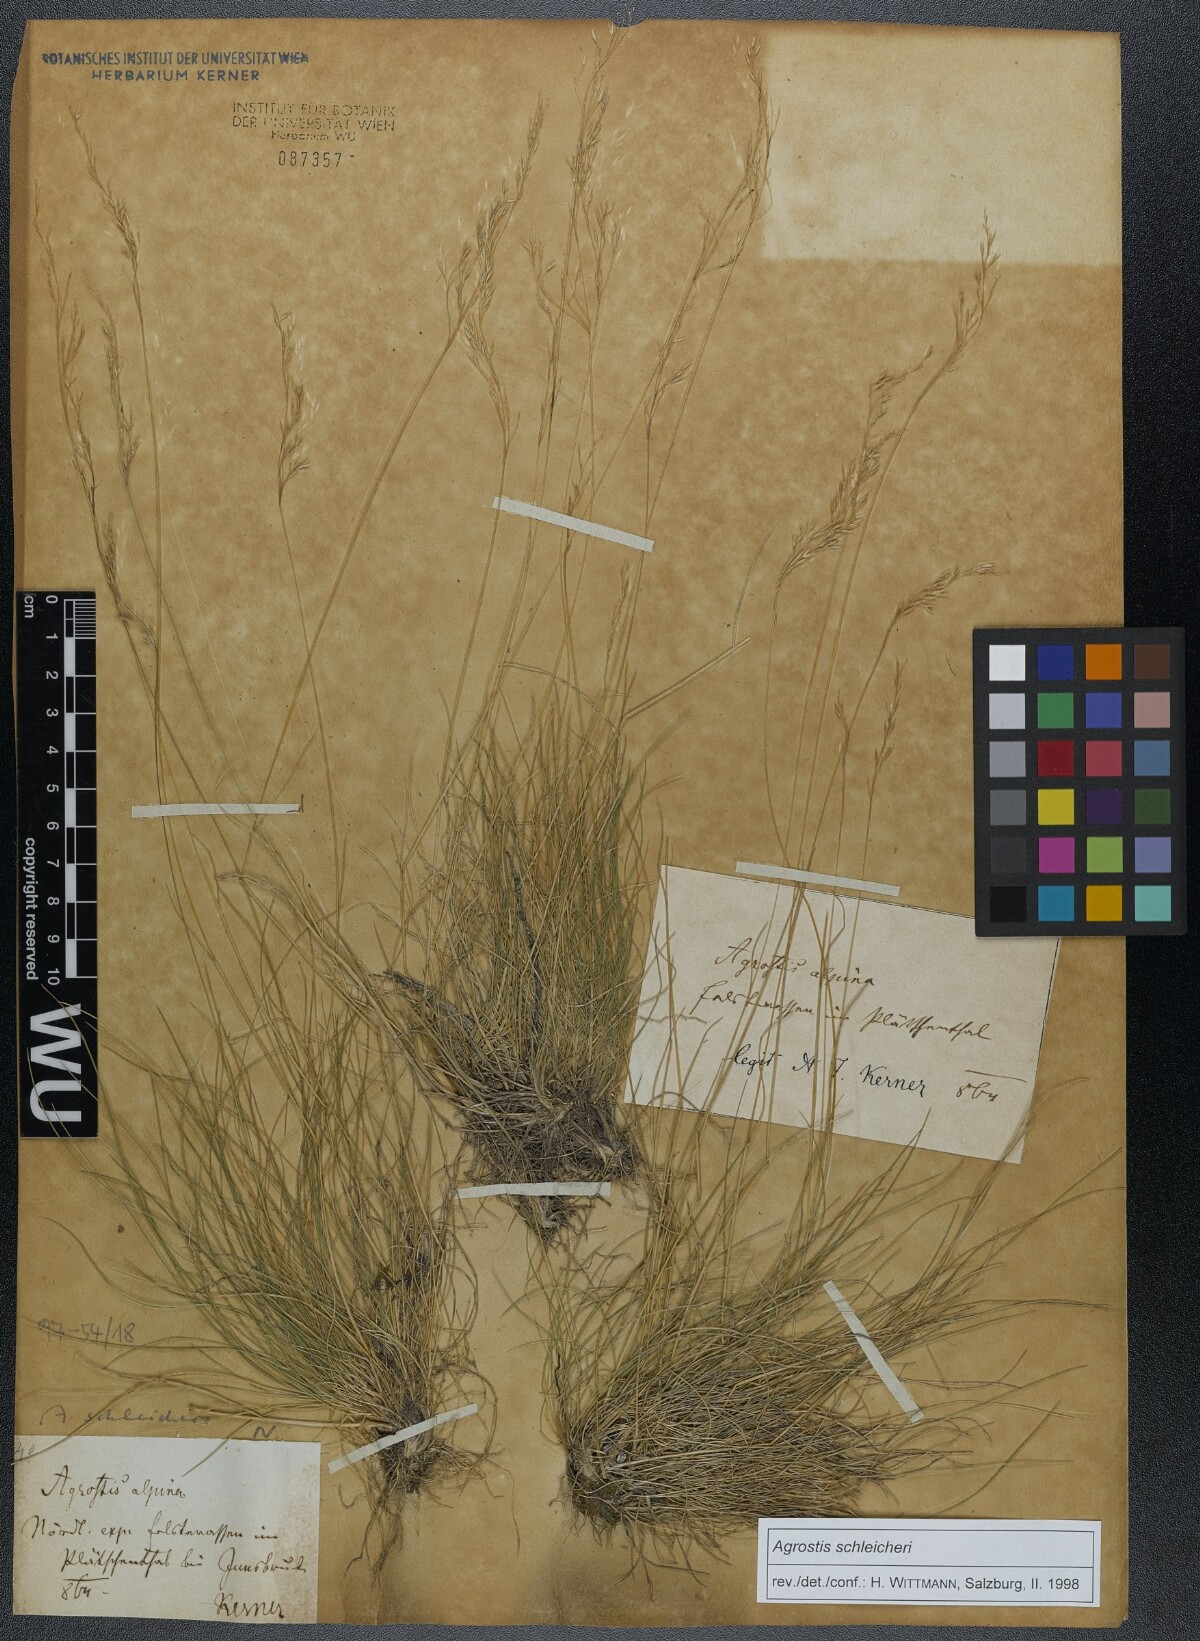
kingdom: Plantae
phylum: Tracheophyta
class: Liliopsida
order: Poales
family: Poaceae
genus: Alpagrostis
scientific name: Alpagrostis schleicheri
